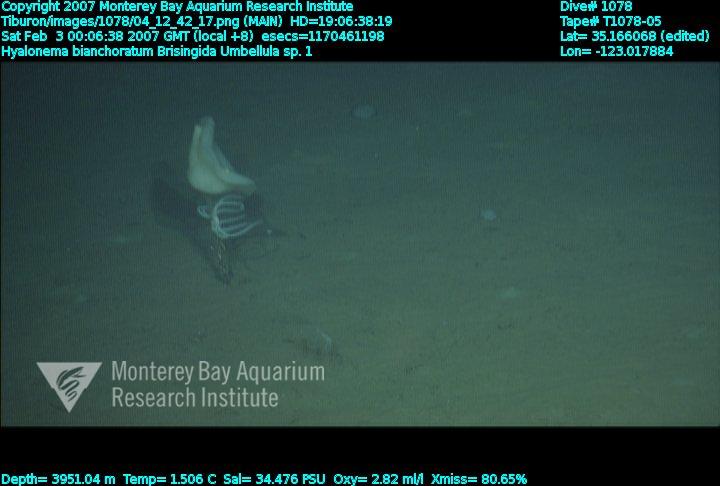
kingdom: Animalia
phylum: Porifera
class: Hexactinellida
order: Amphidiscosida
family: Hyalonematidae
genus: Hyalonema
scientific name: Hyalonema bianchoratum
